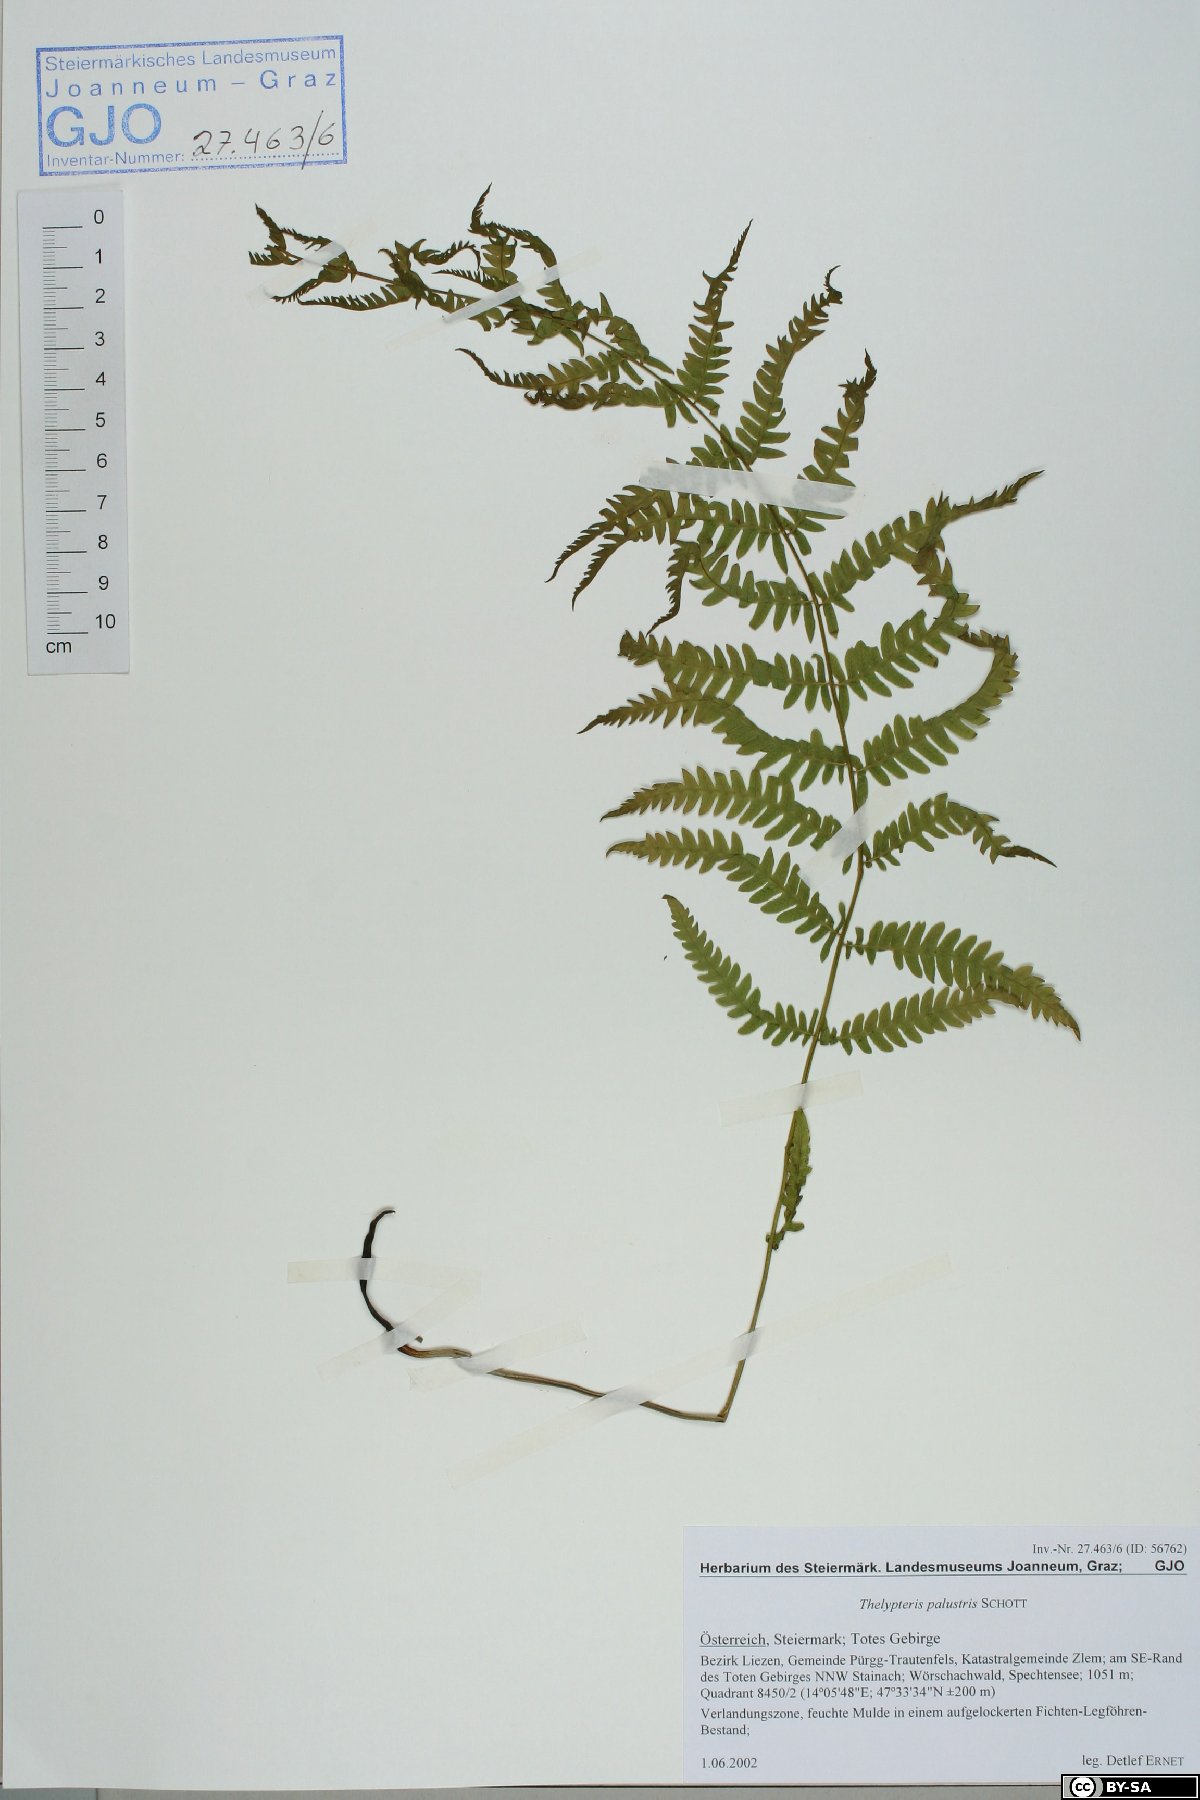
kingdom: Plantae
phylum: Tracheophyta
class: Polypodiopsida
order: Polypodiales
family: Thelypteridaceae
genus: Thelypteris
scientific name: Thelypteris palustris
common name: Marsh fern
